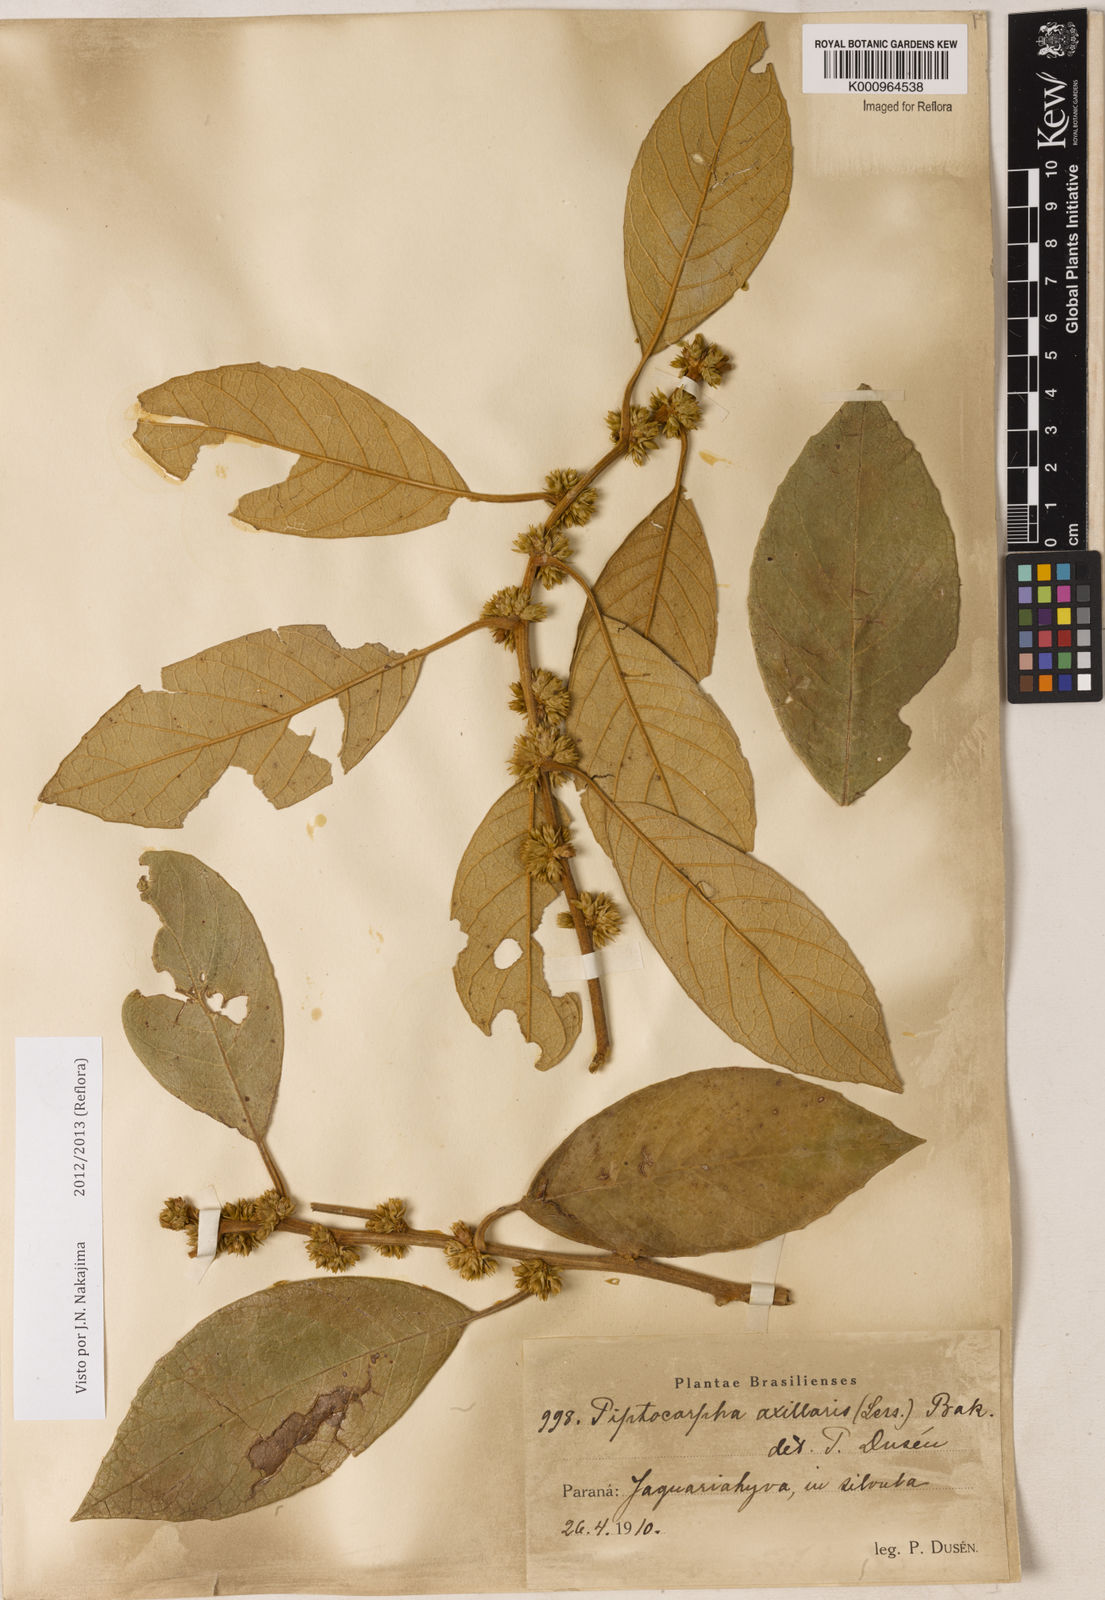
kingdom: Plantae
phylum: Tracheophyta
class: Magnoliopsida
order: Asterales
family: Asteraceae
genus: Piptocarpha
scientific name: Piptocarpha axillaris
